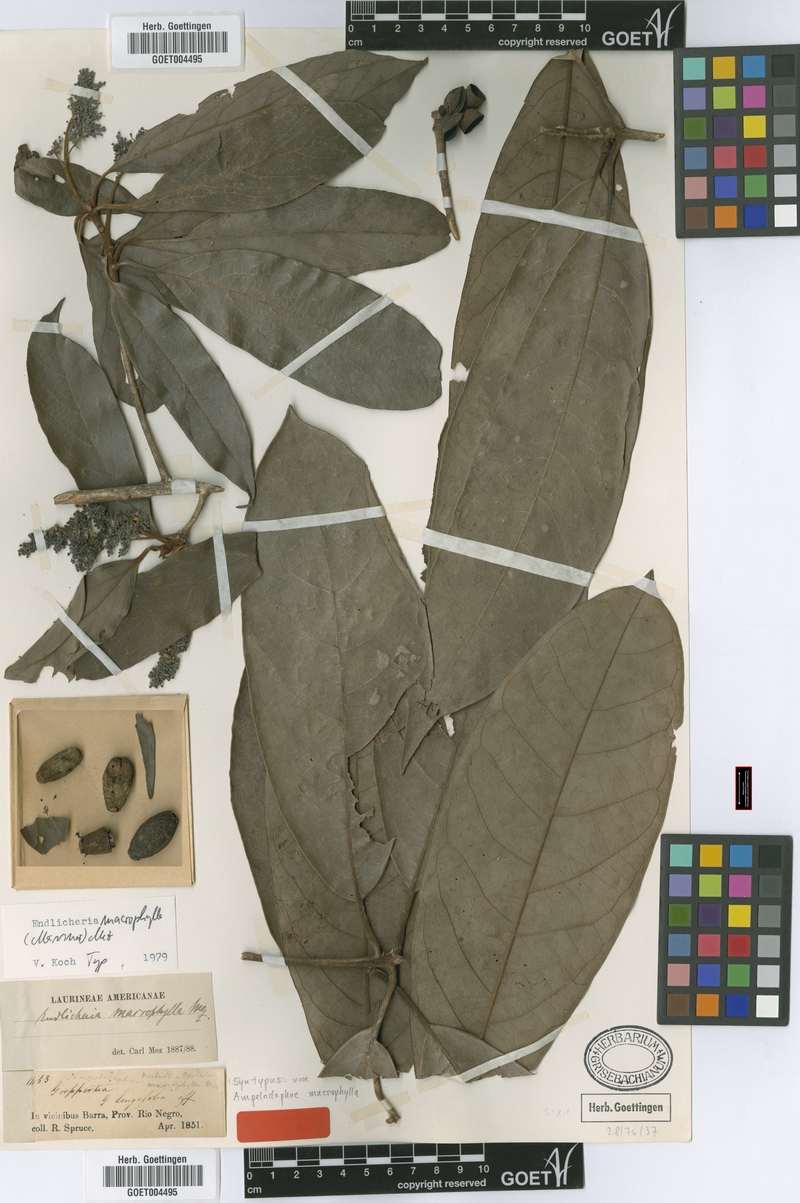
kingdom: Plantae
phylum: Tracheophyta
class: Magnoliopsida
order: Laurales
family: Lauraceae
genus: Endlicheria
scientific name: Endlicheria macrophylla
